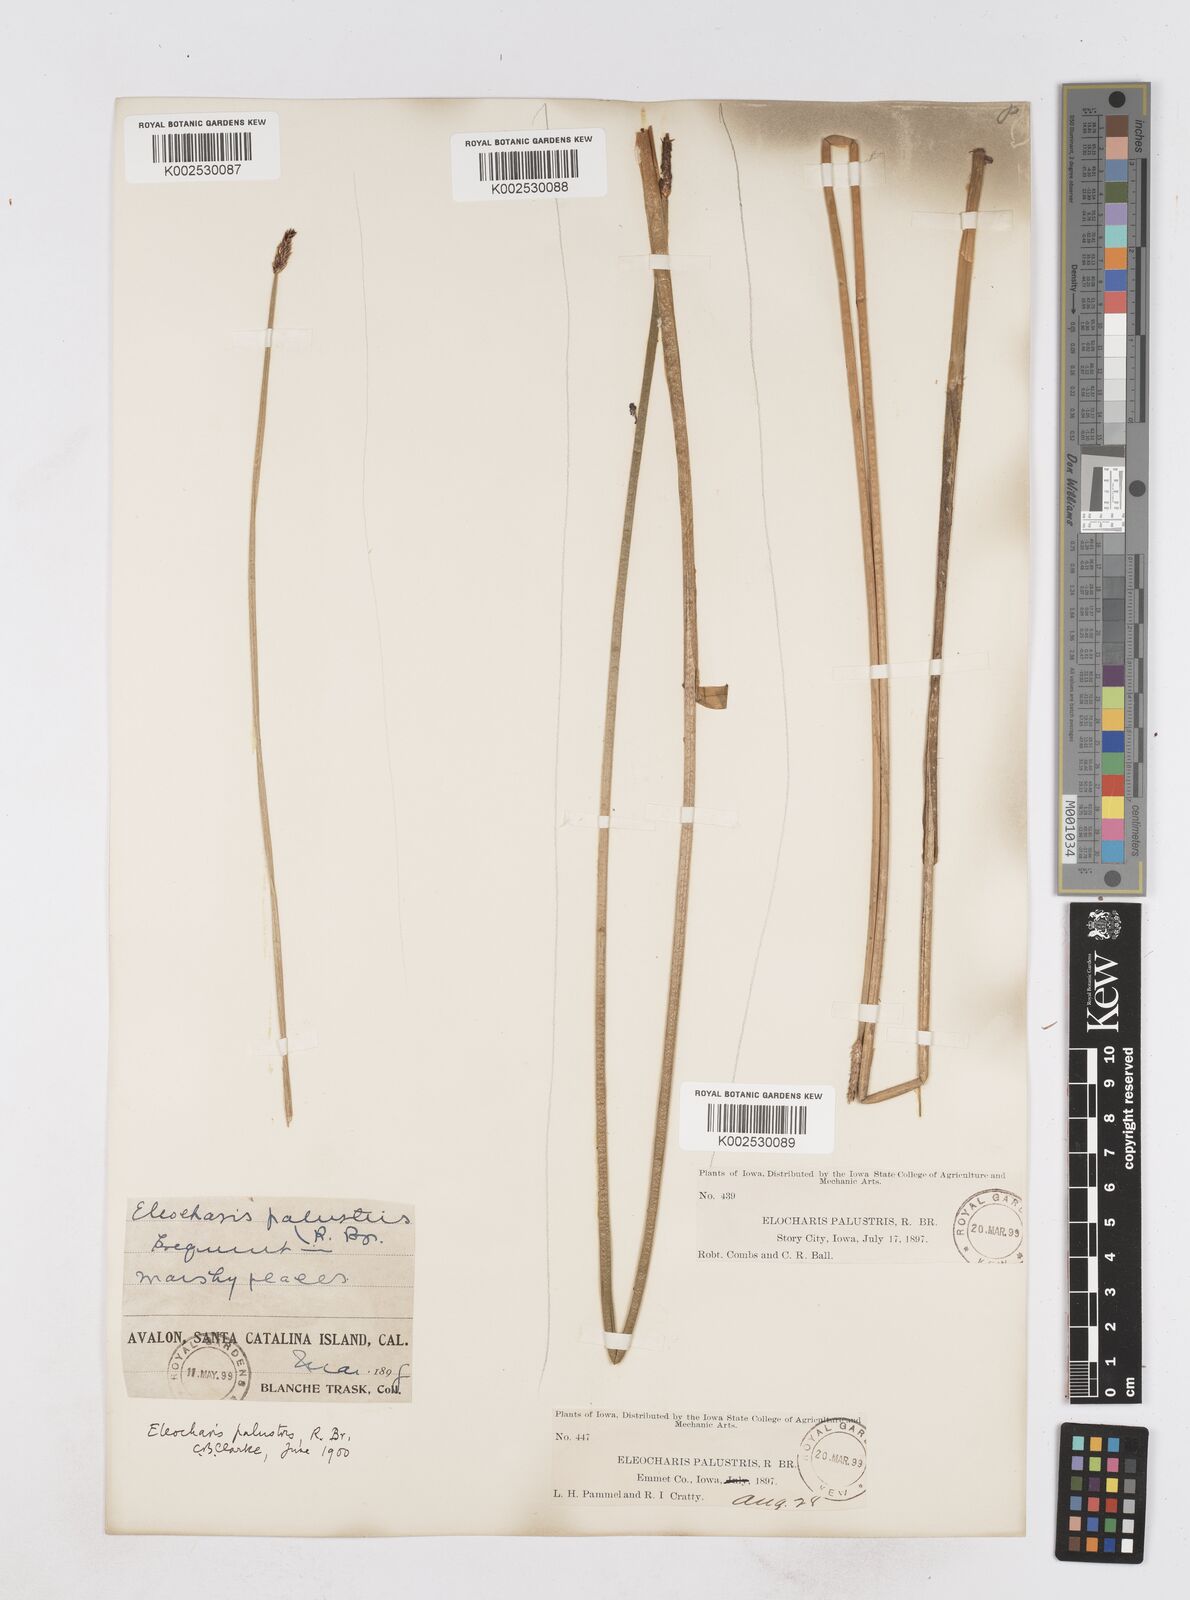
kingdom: Plantae
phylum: Tracheophyta
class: Liliopsida
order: Poales
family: Cyperaceae
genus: Eleocharis
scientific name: Eleocharis palustris
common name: Common spike-rush
